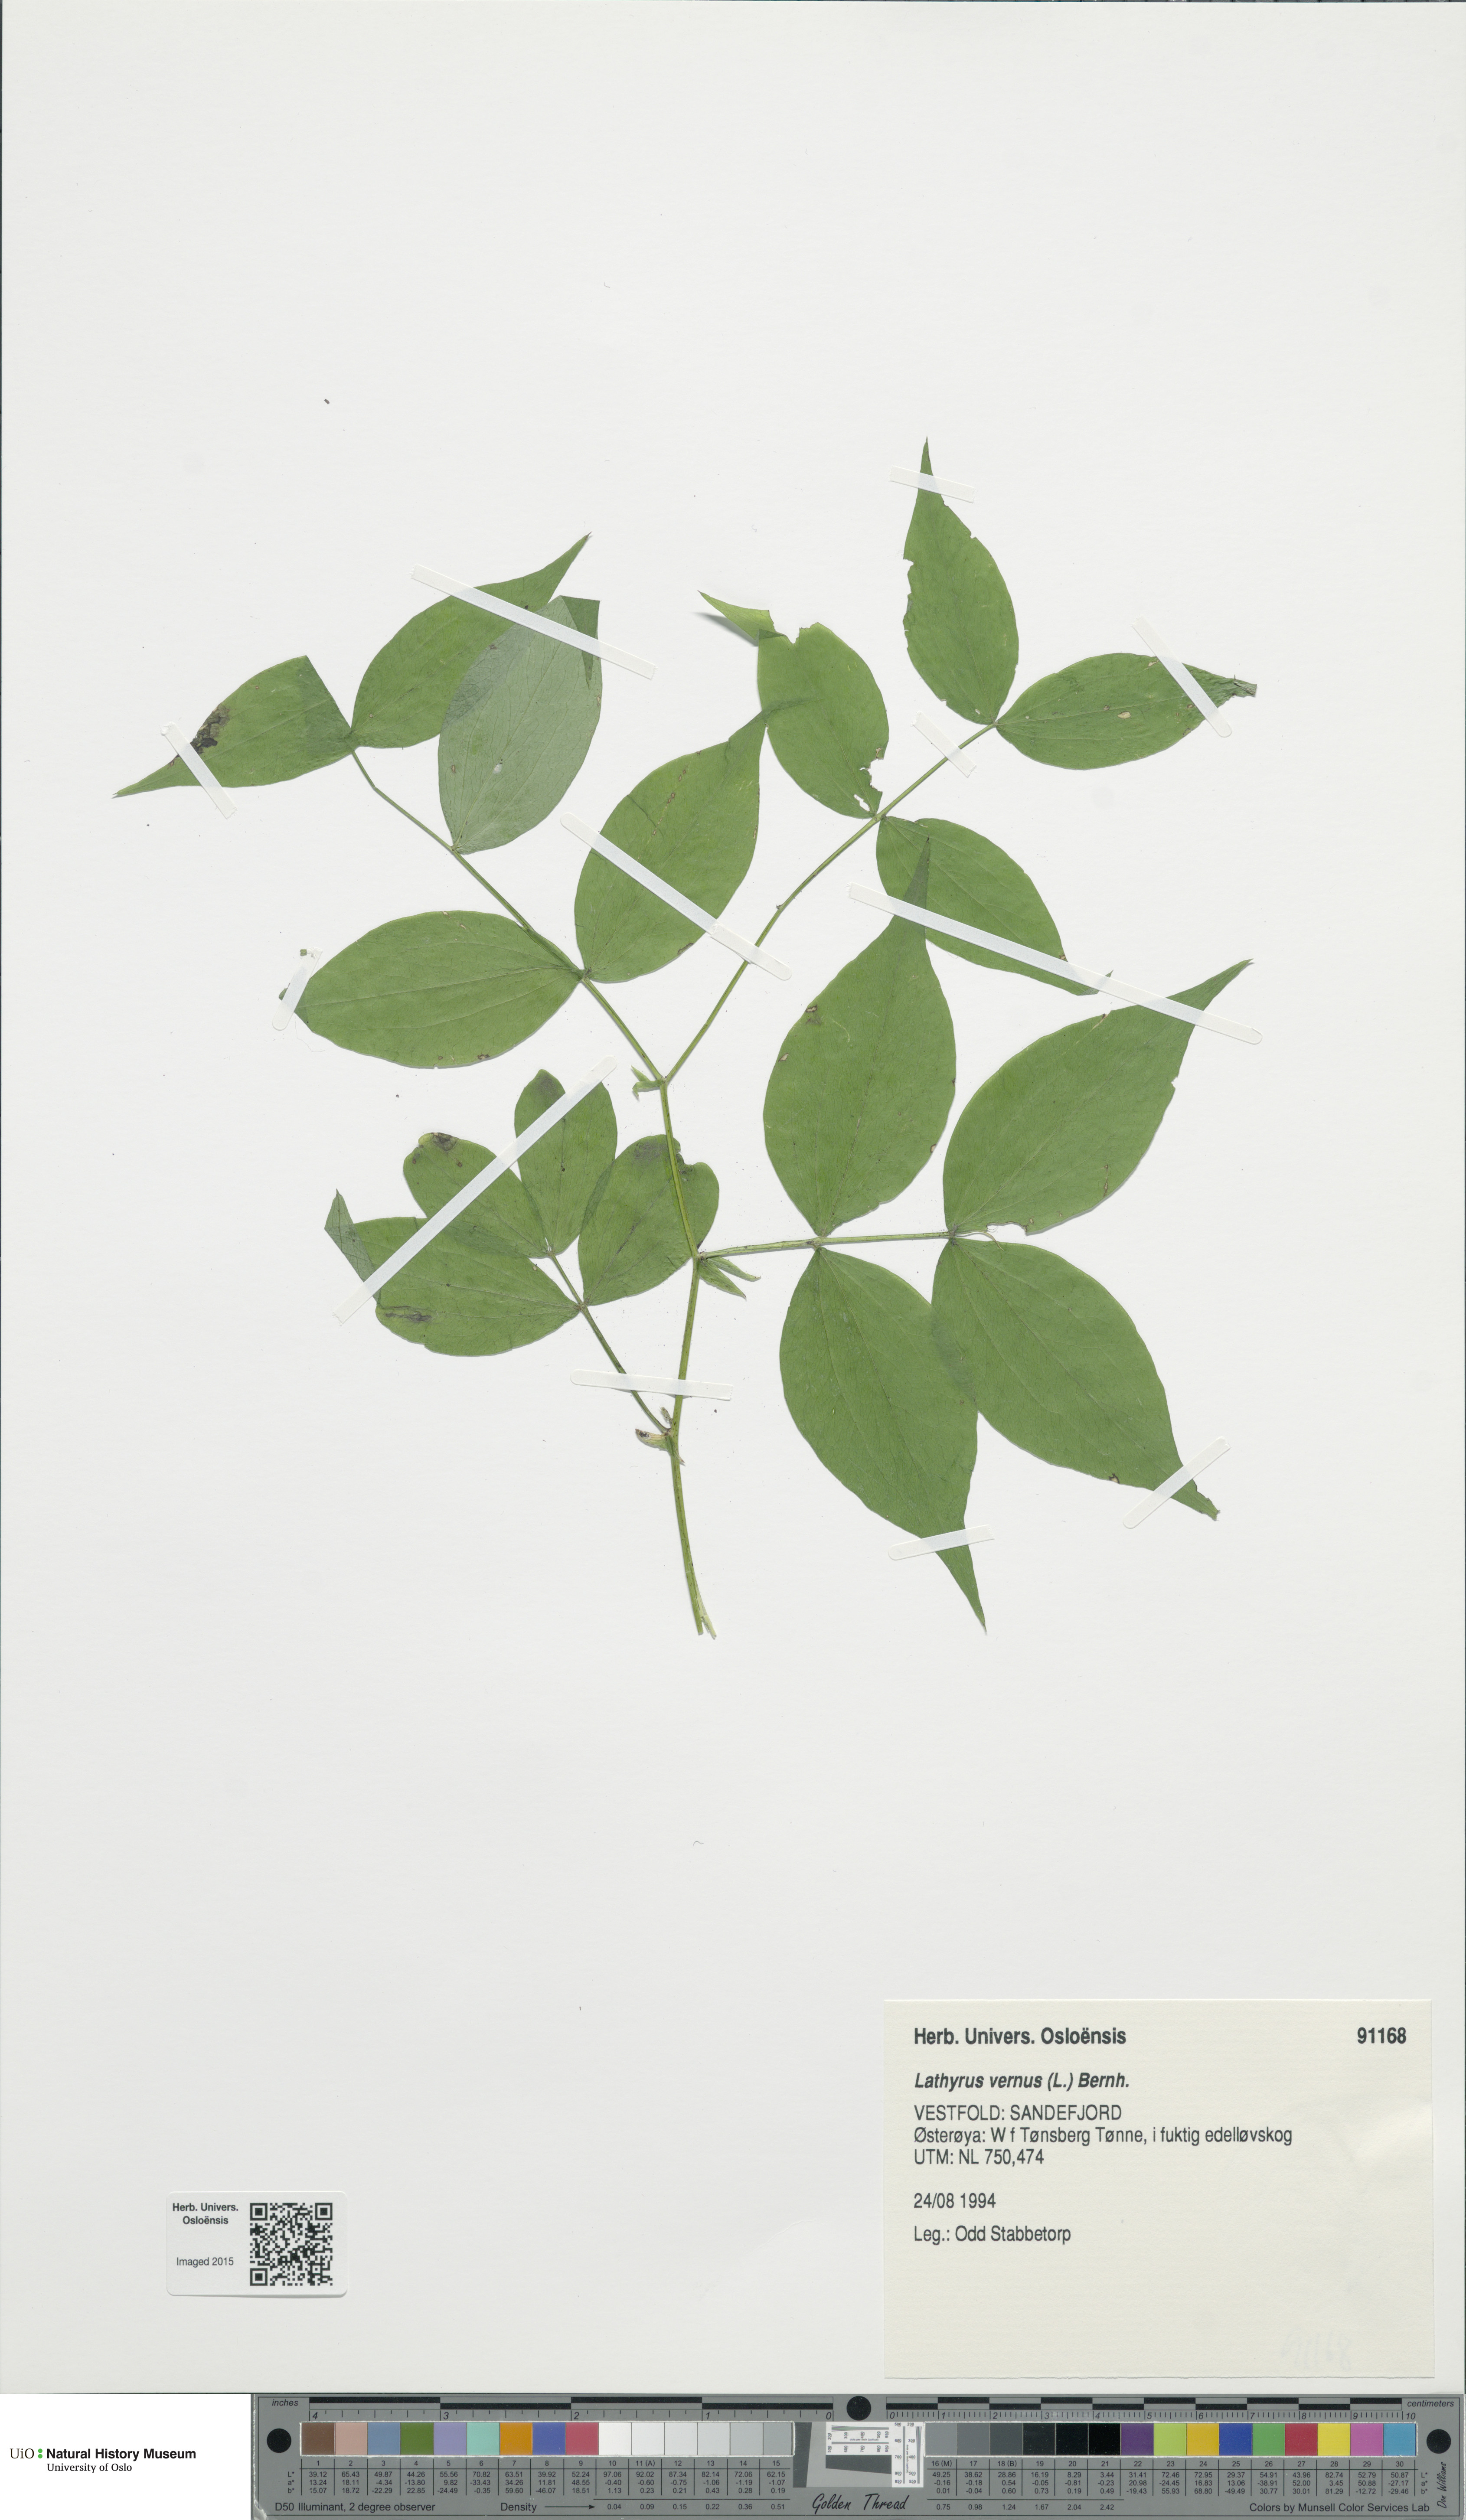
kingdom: Plantae
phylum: Tracheophyta
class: Magnoliopsida
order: Fabales
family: Fabaceae
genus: Lathyrus
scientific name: Lathyrus vernus
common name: Spring pea
